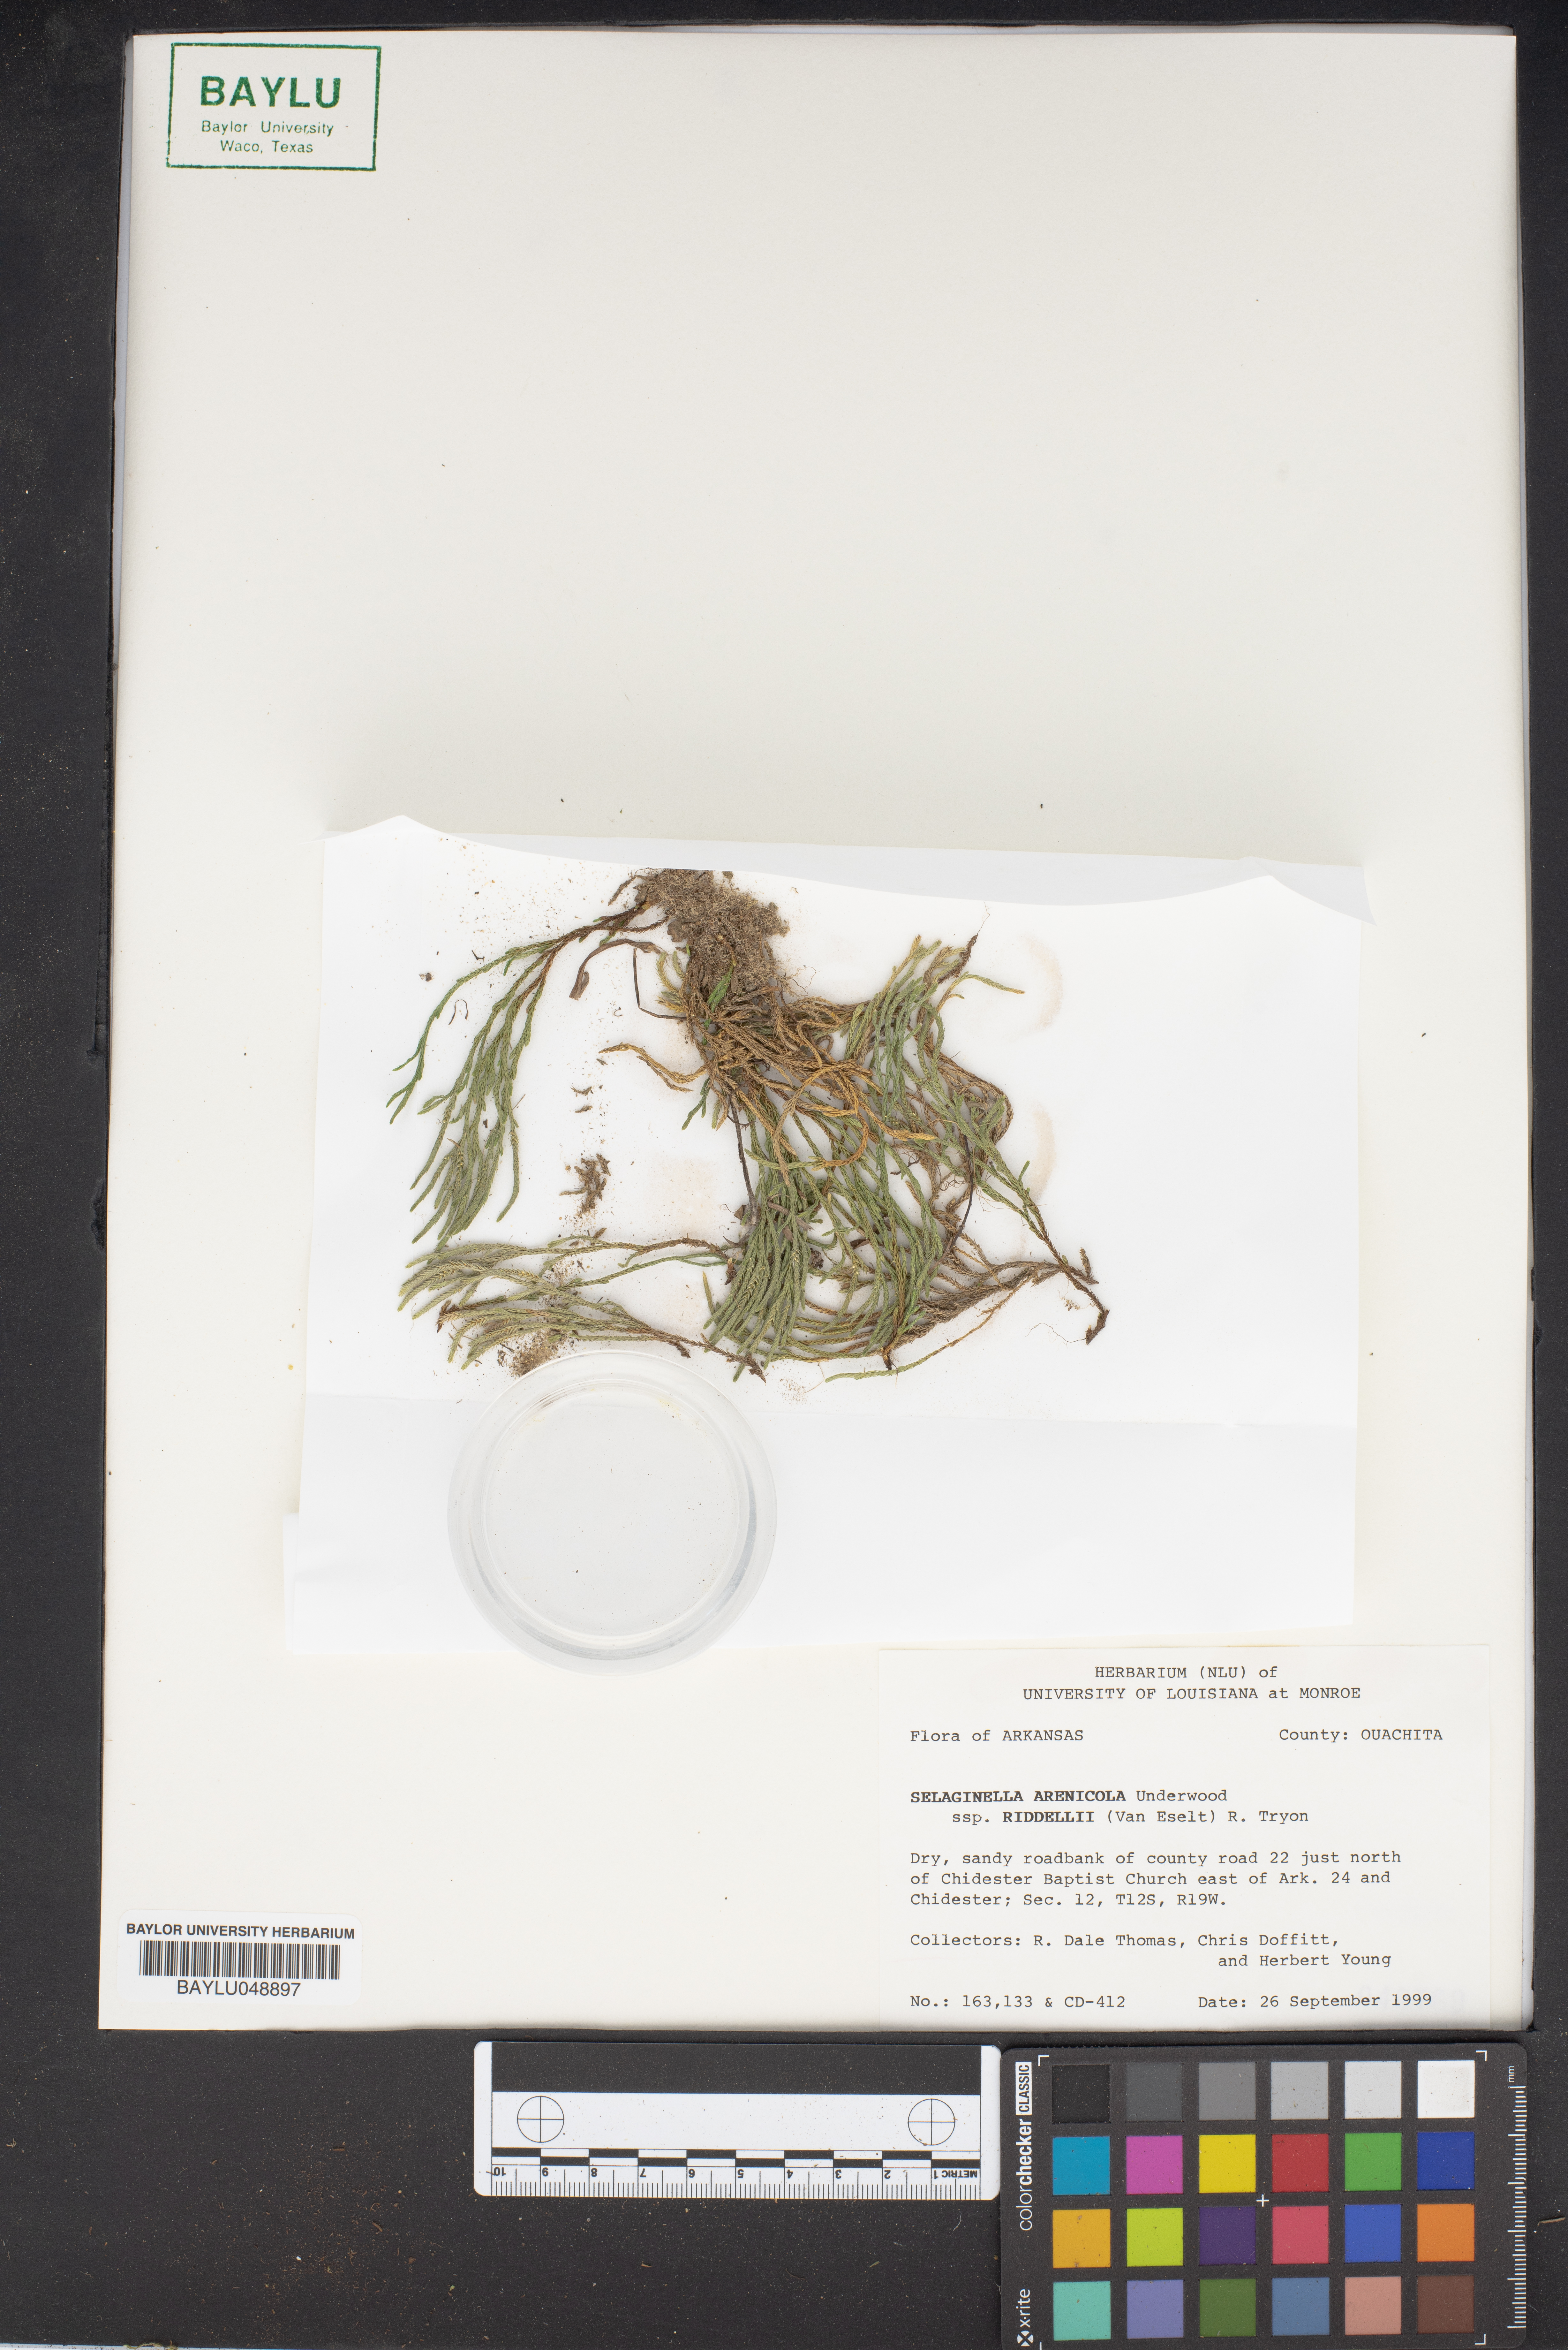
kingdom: Plantae
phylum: Tracheophyta
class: Lycopodiopsida
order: Selaginellales
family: Selaginellaceae
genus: Selaginella
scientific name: Selaginella corallina
